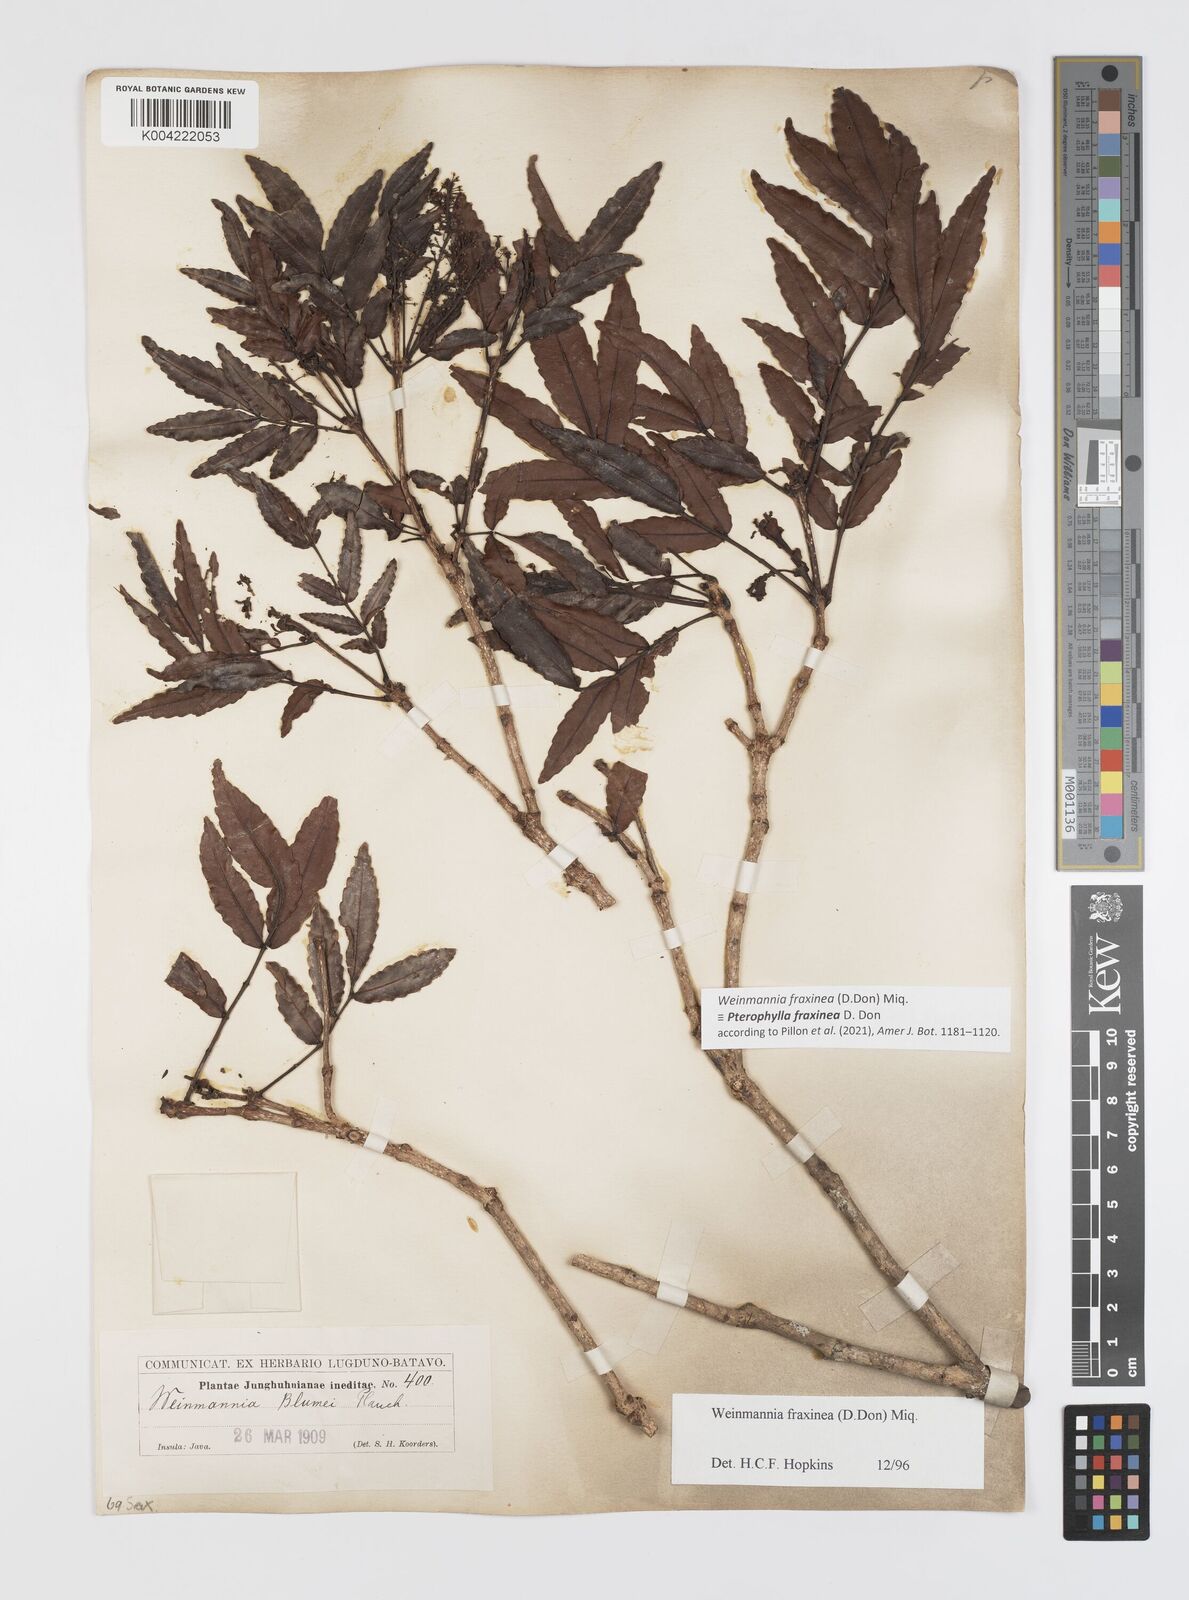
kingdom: Plantae
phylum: Tracheophyta
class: Magnoliopsida
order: Oxalidales
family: Cunoniaceae
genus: Pterophylla
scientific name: Pterophylla fraxinea
